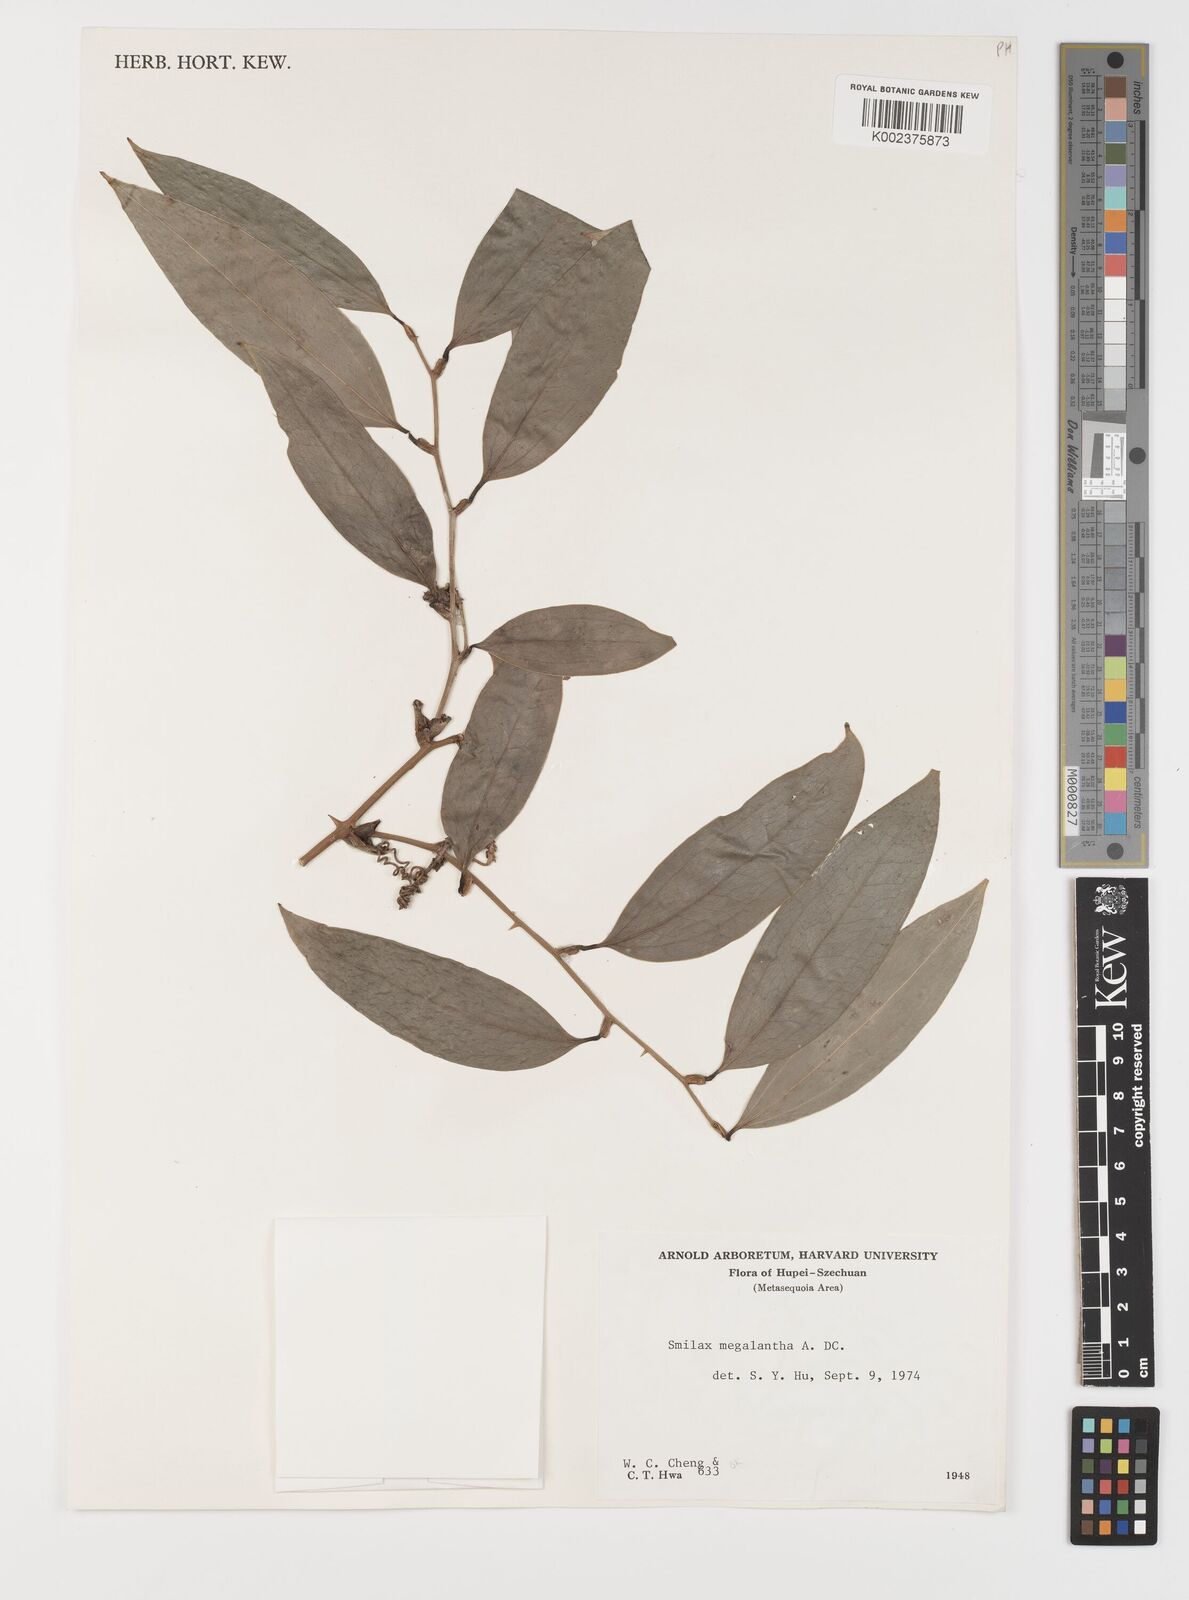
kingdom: Plantae
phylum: Tracheophyta
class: Liliopsida
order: Liliales
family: Smilacaceae
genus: Smilax
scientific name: Smilax megalantha
